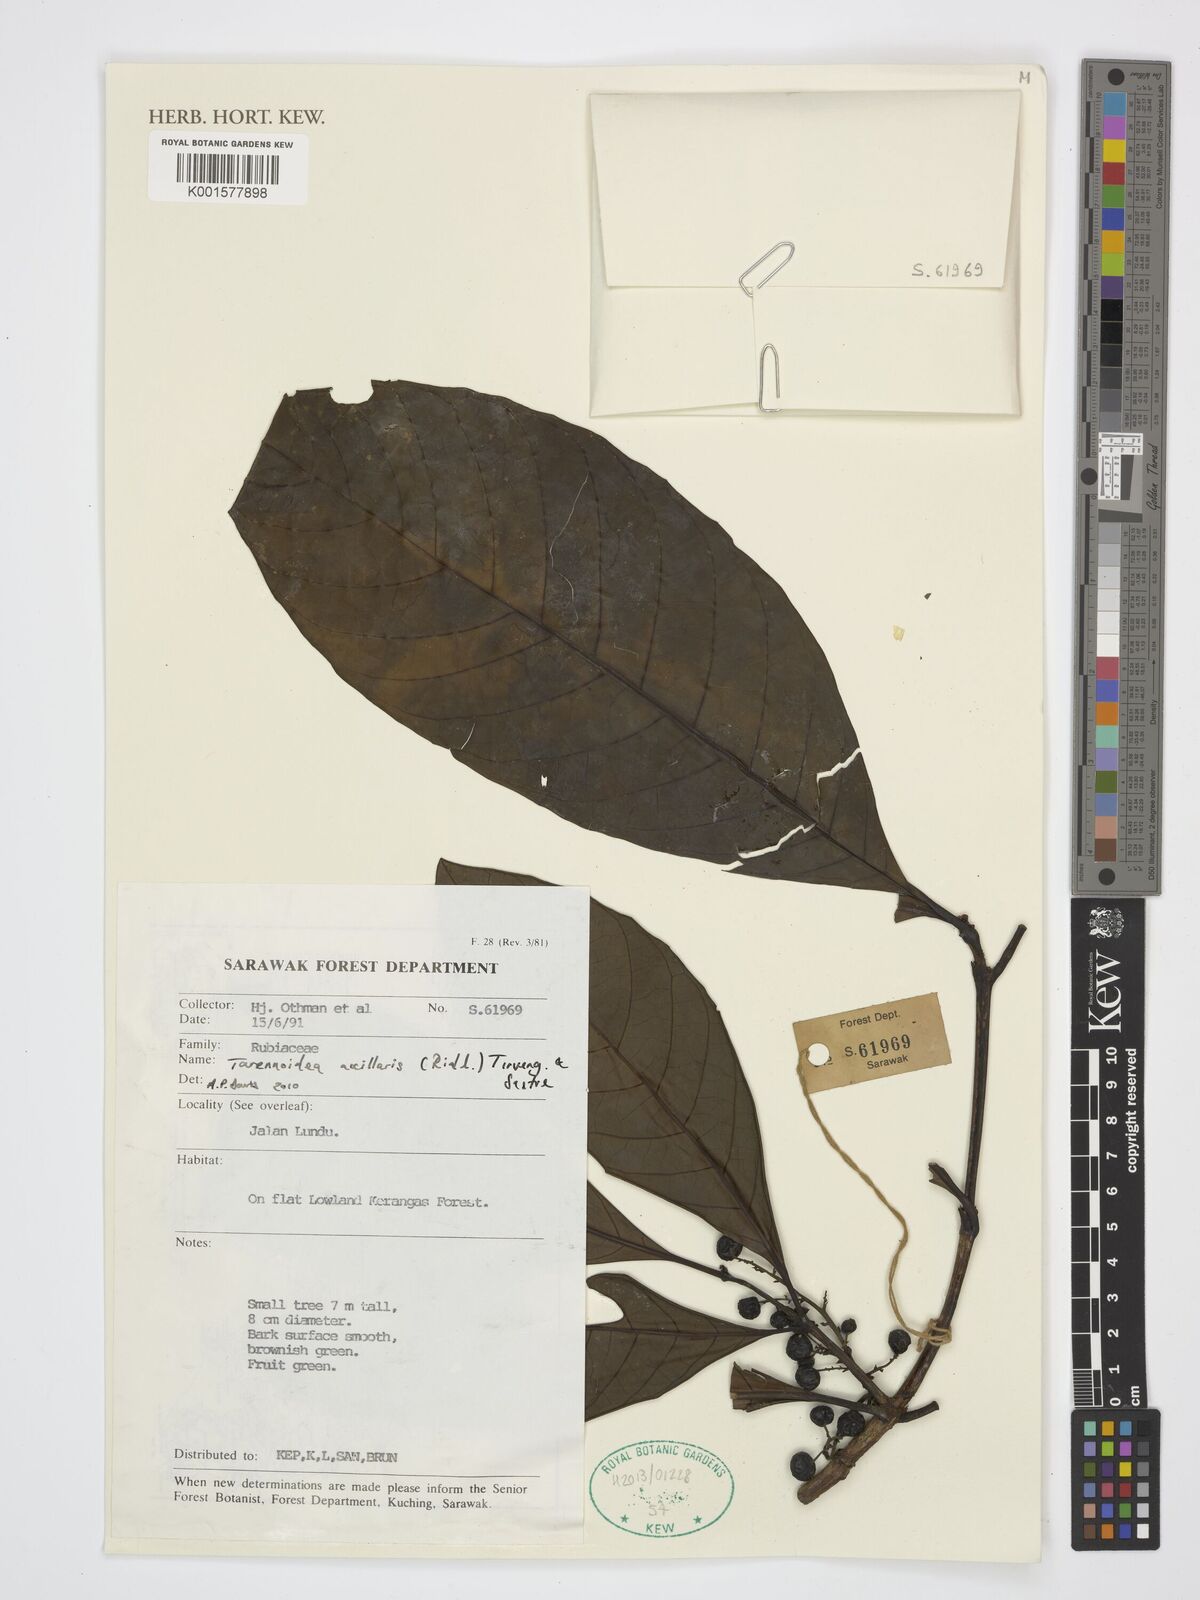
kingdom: Plantae
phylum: Tracheophyta
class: Magnoliopsida
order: Gentianales
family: Rubiaceae
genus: Tarennoidea
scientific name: Tarennoidea axillaris
